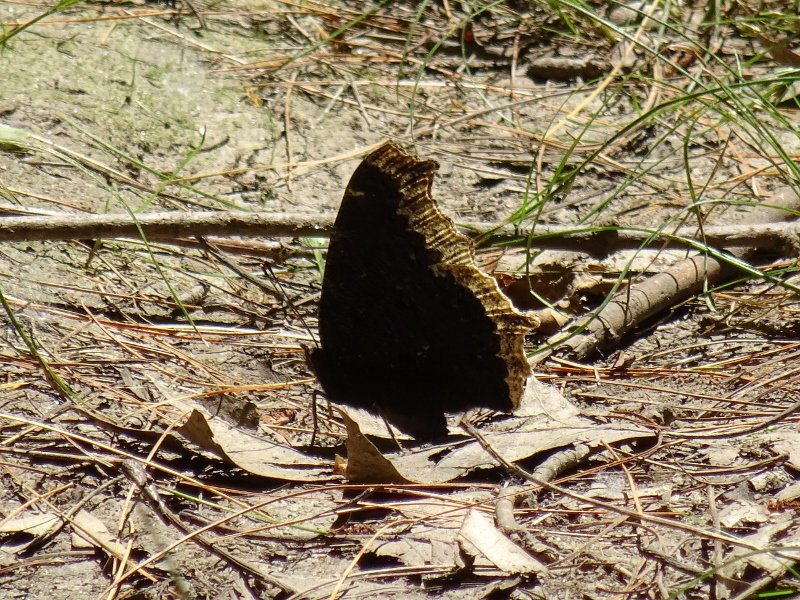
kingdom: Animalia
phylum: Arthropoda
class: Insecta
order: Lepidoptera
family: Nymphalidae
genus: Nymphalis
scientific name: Nymphalis antiopa
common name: Mourning Cloak
